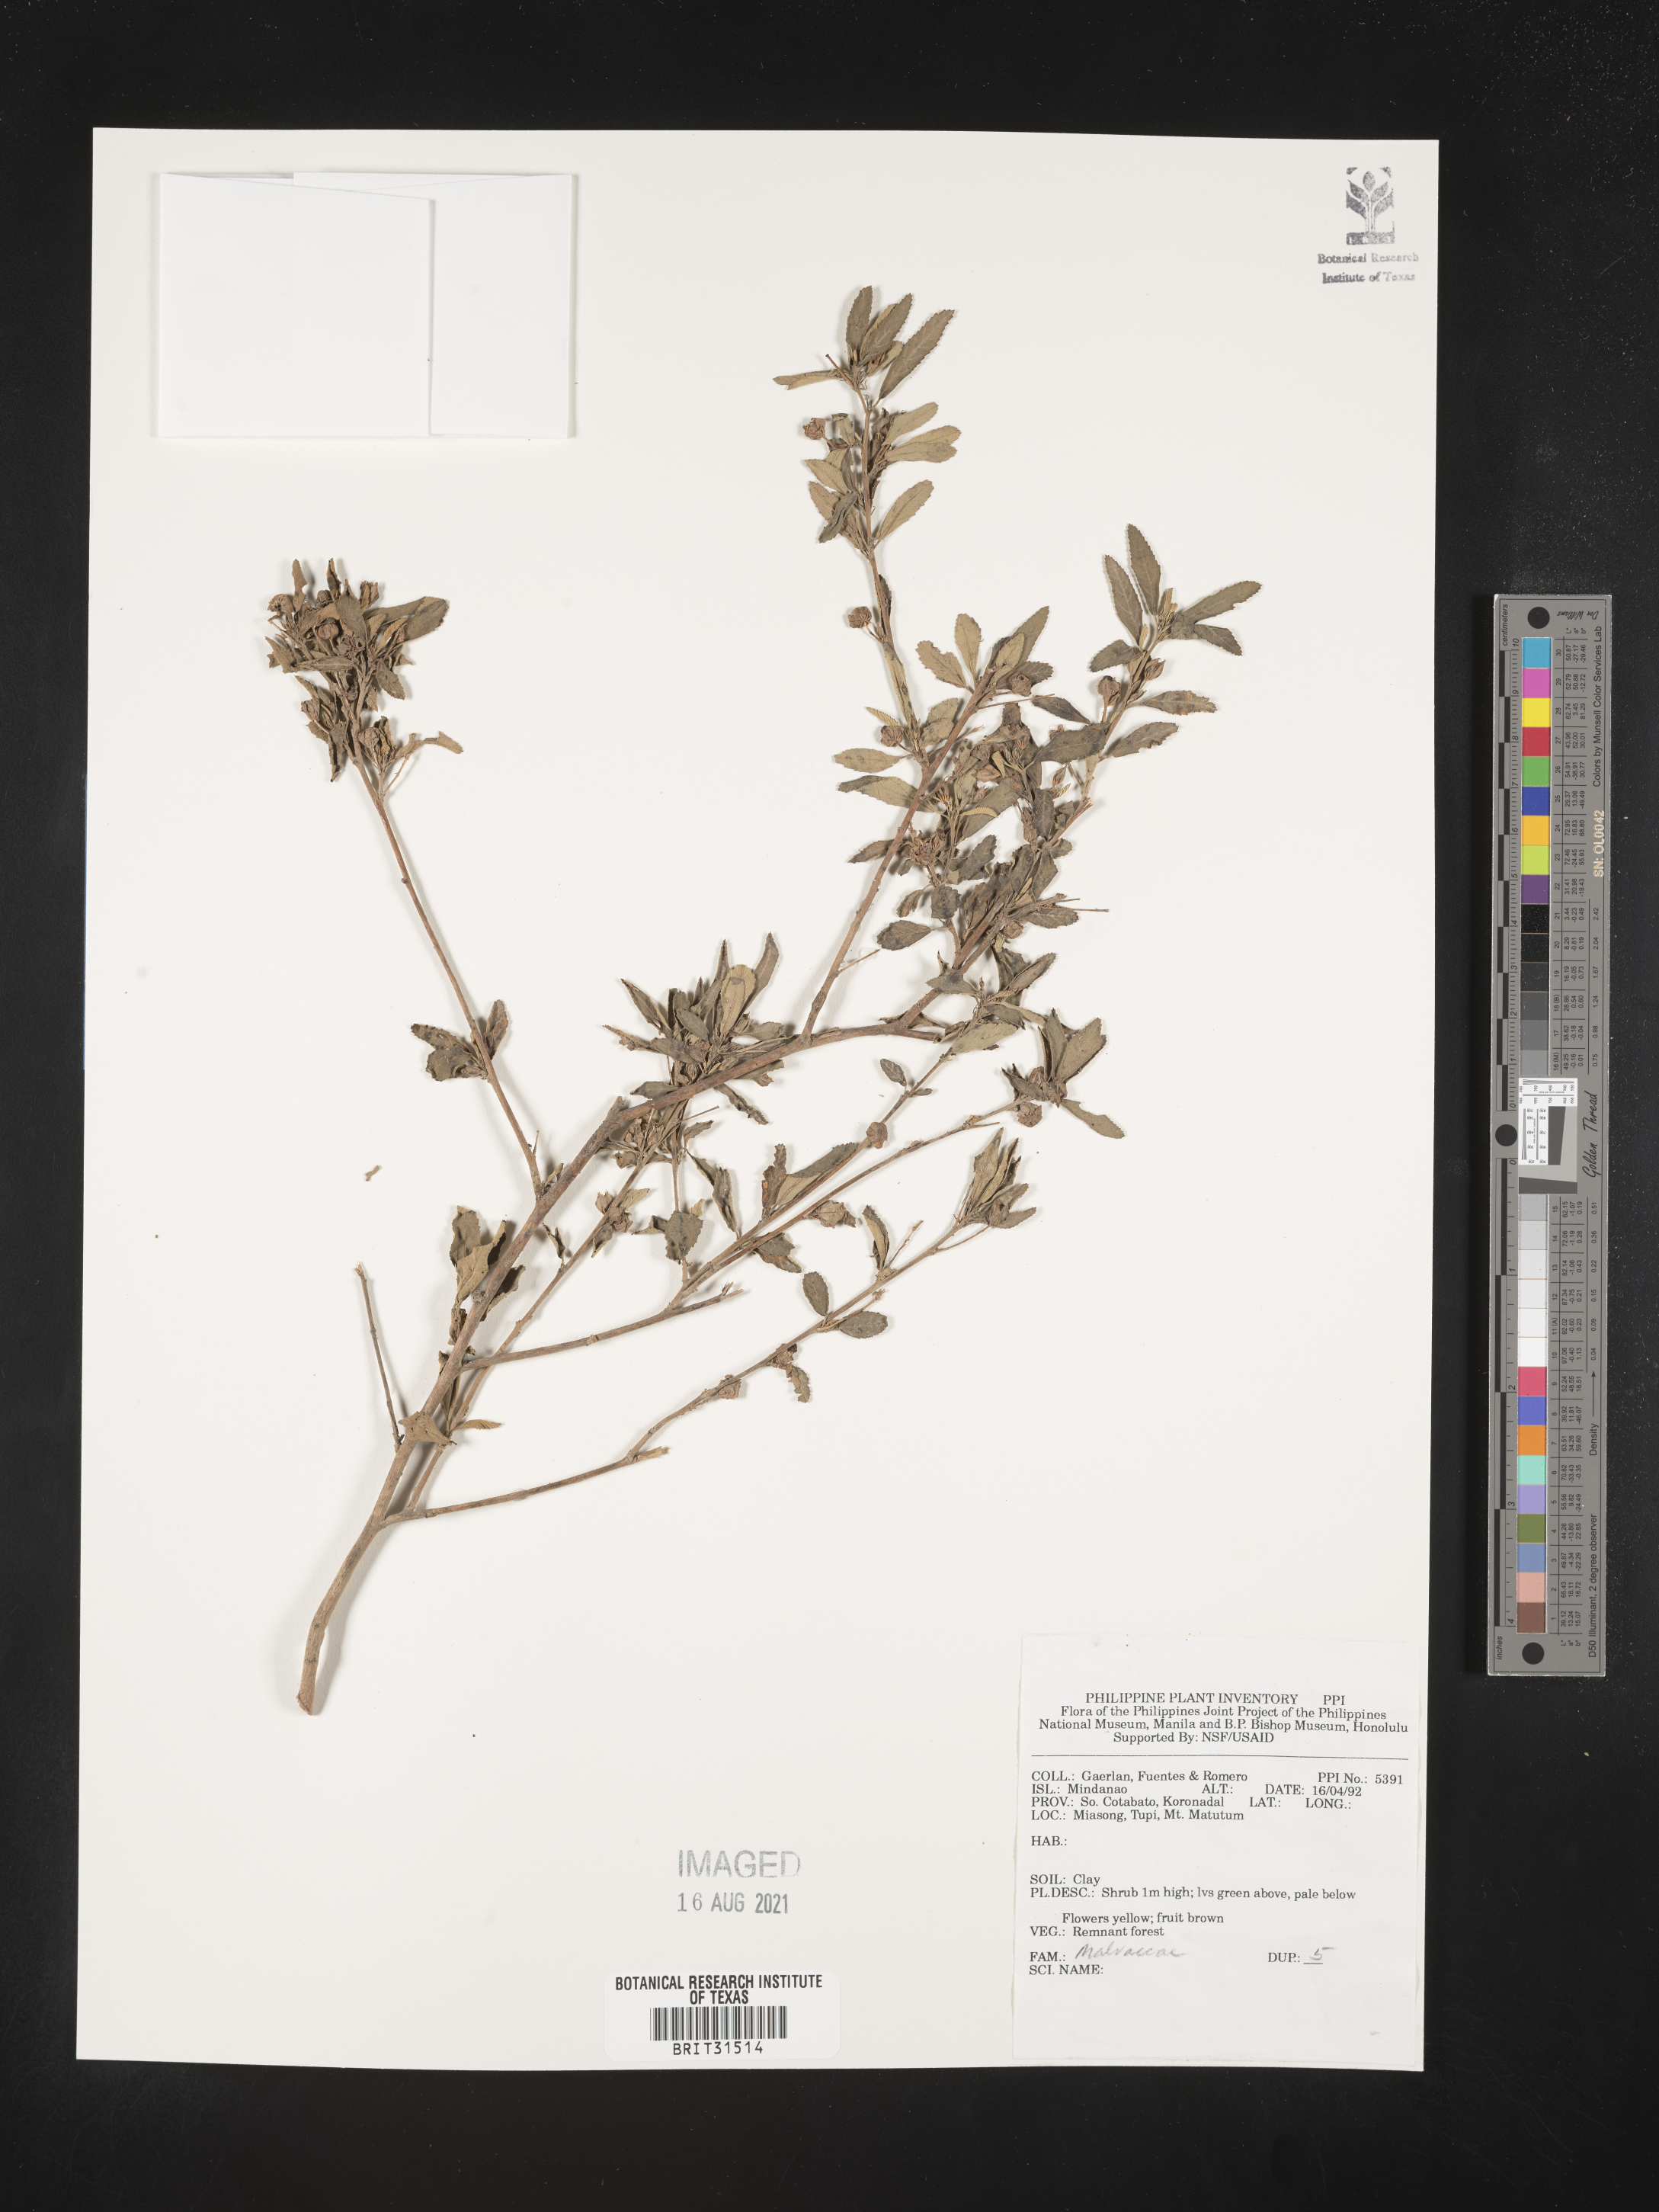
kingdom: Plantae
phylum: Tracheophyta
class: Magnoliopsida
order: Malvales
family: Malvaceae
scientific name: Malvaceae
